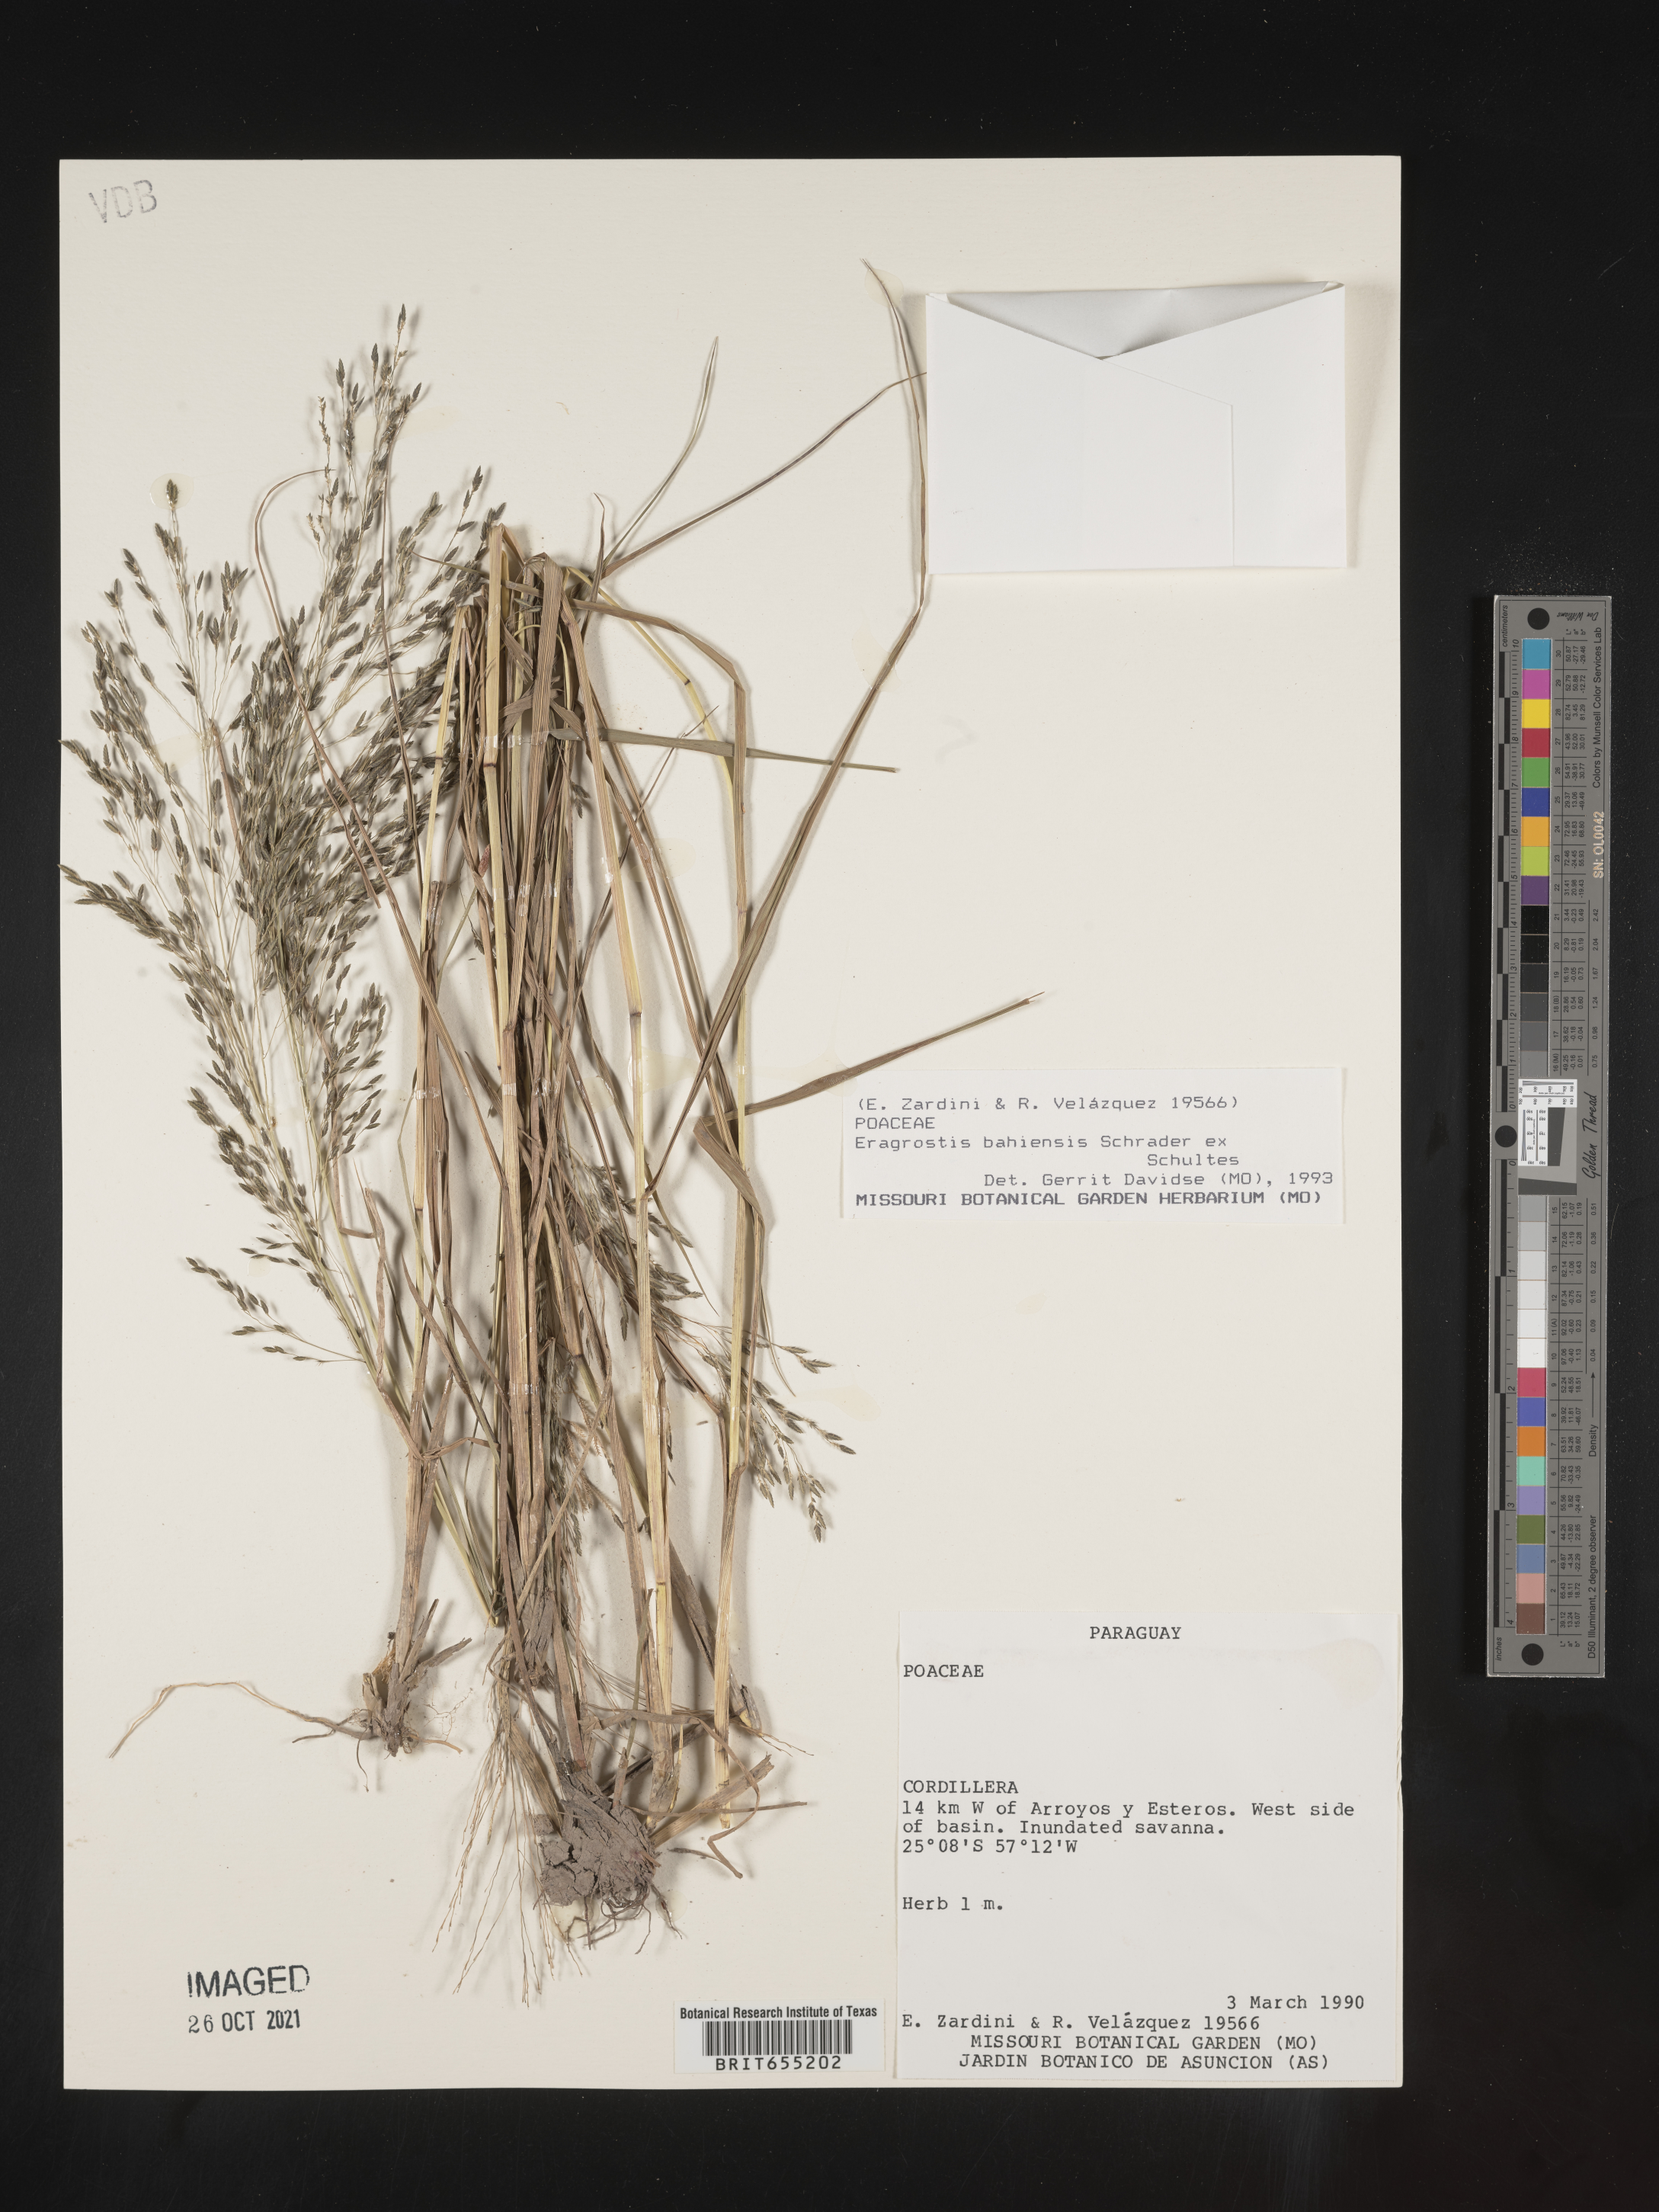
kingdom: Plantae
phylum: Tracheophyta
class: Liliopsida
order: Poales
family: Poaceae
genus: Eragrostis
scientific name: Eragrostis
